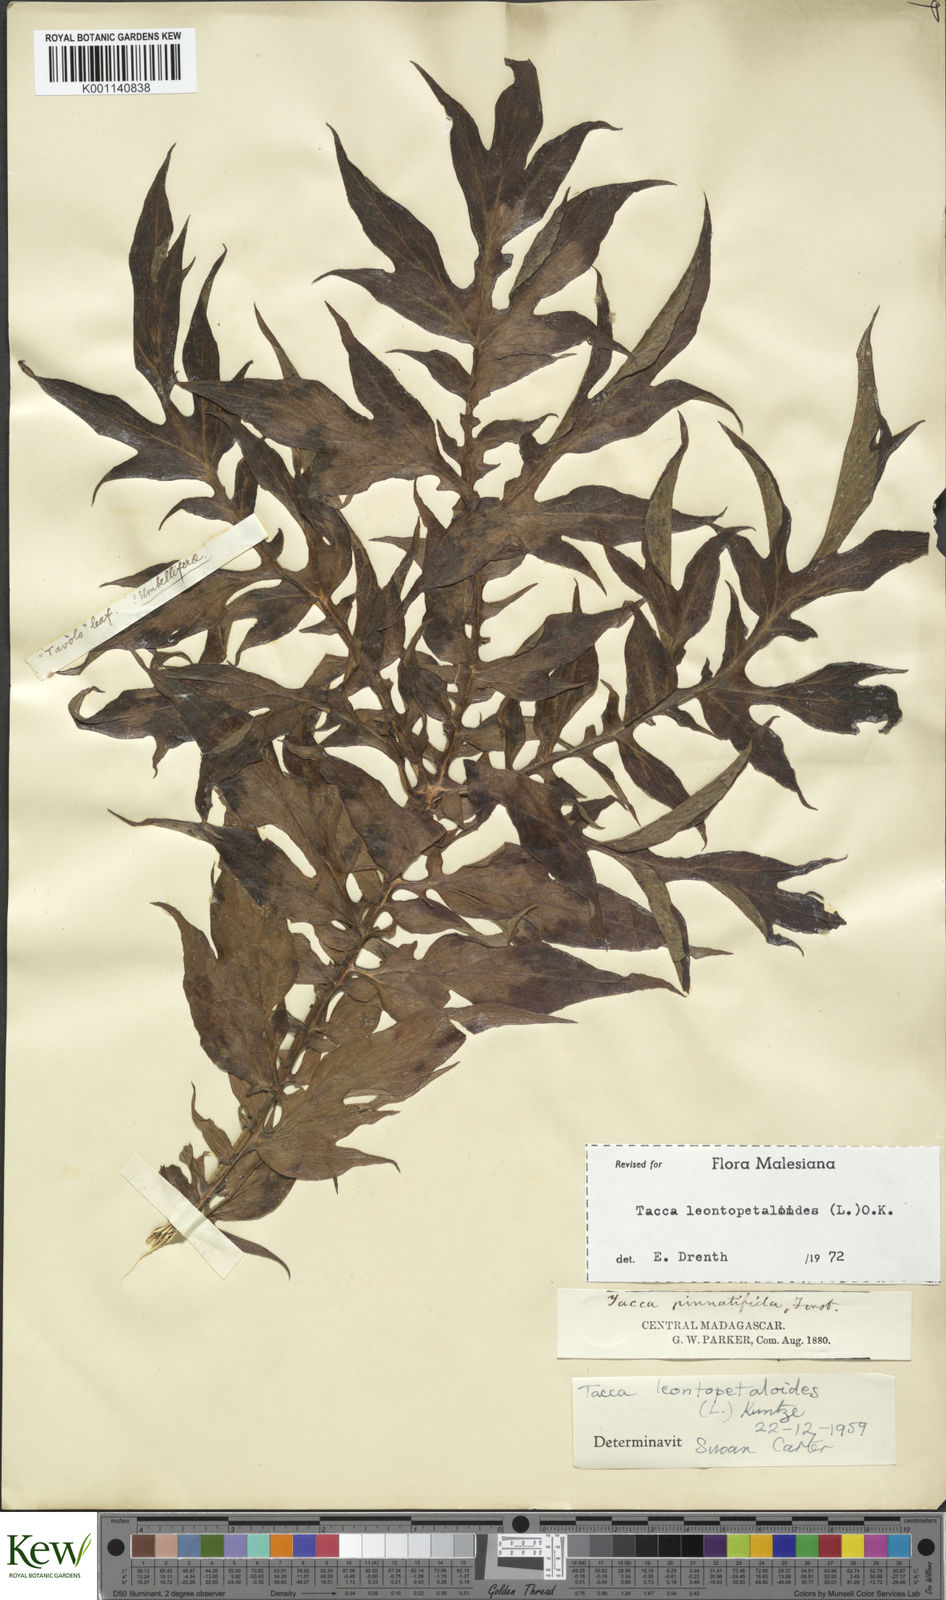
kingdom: Plantae
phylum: Tracheophyta
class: Liliopsida
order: Dioscoreales
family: Dioscoreaceae
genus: Tacca
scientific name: Tacca leontopetaloides
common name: Arrowroot
